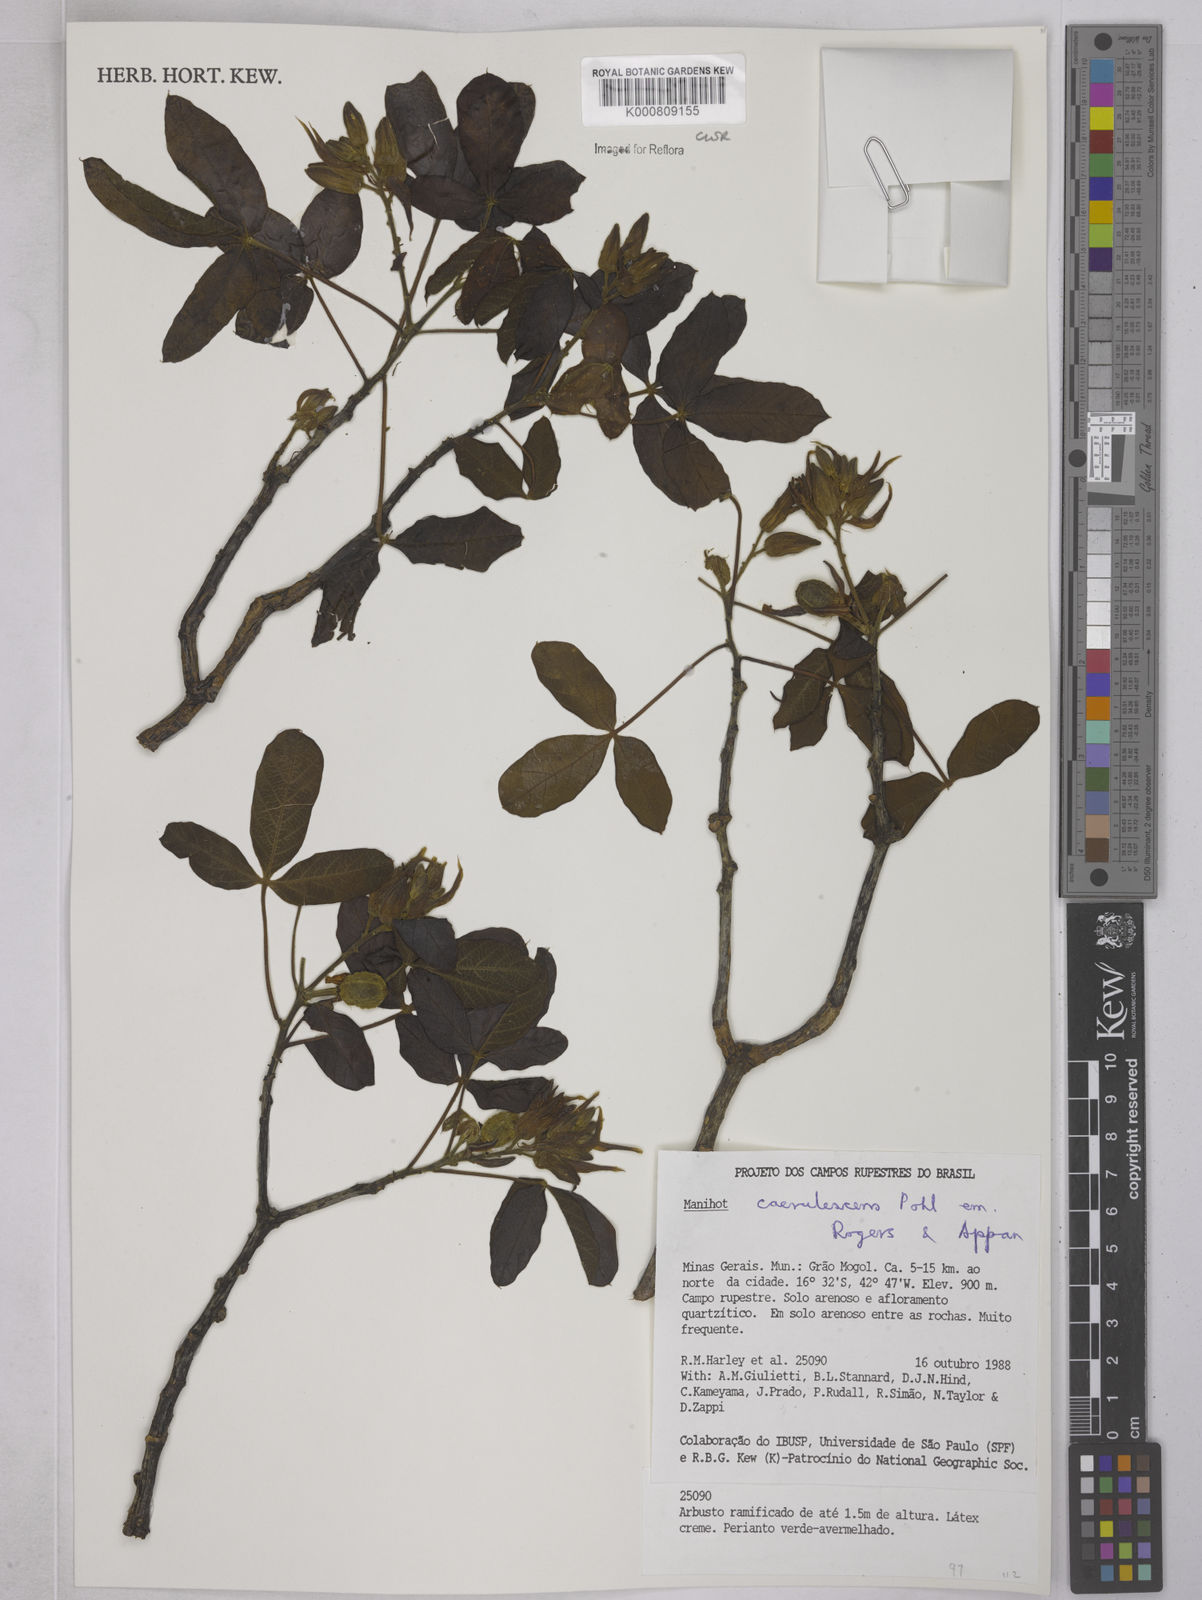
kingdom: Plantae
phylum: Tracheophyta
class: Magnoliopsida
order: Malpighiales
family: Euphorbiaceae
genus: Manihot
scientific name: Manihot caerulescens
